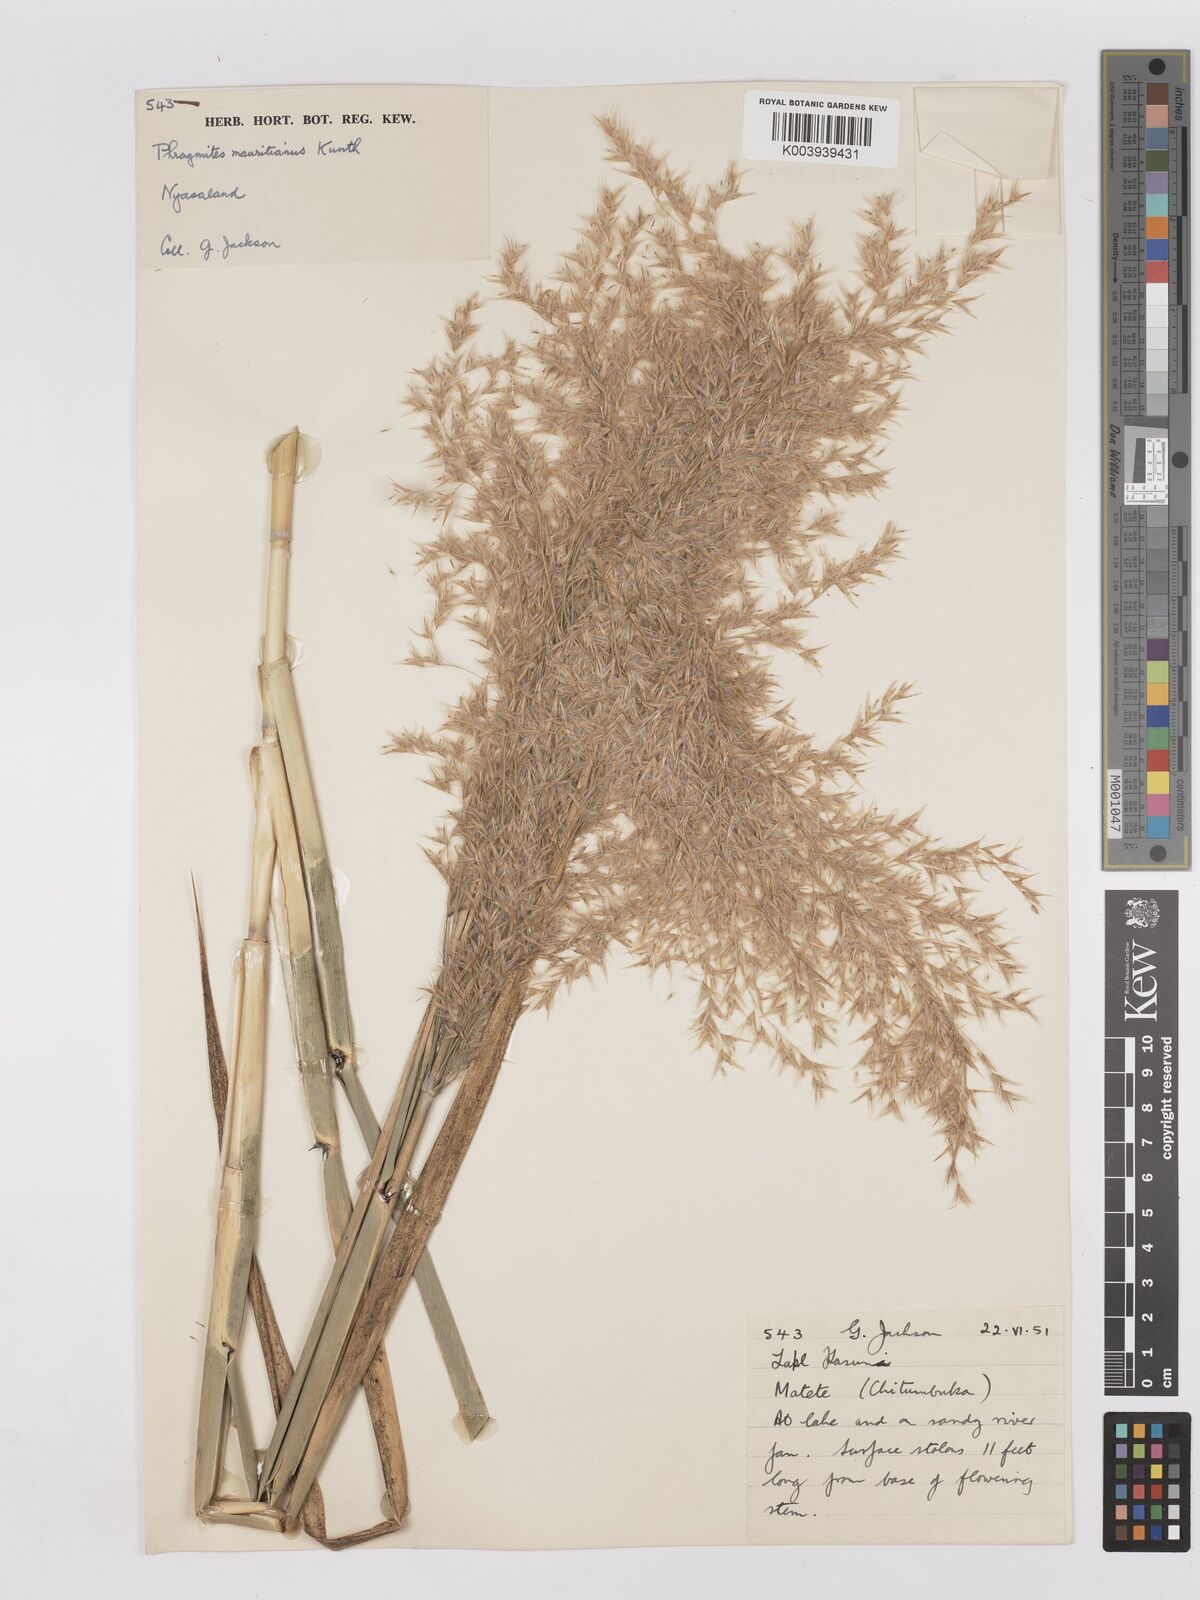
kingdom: Plantae
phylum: Tracheophyta
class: Liliopsida
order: Poales
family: Poaceae
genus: Phragmites
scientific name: Phragmites mauritianus
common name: Reed grass
